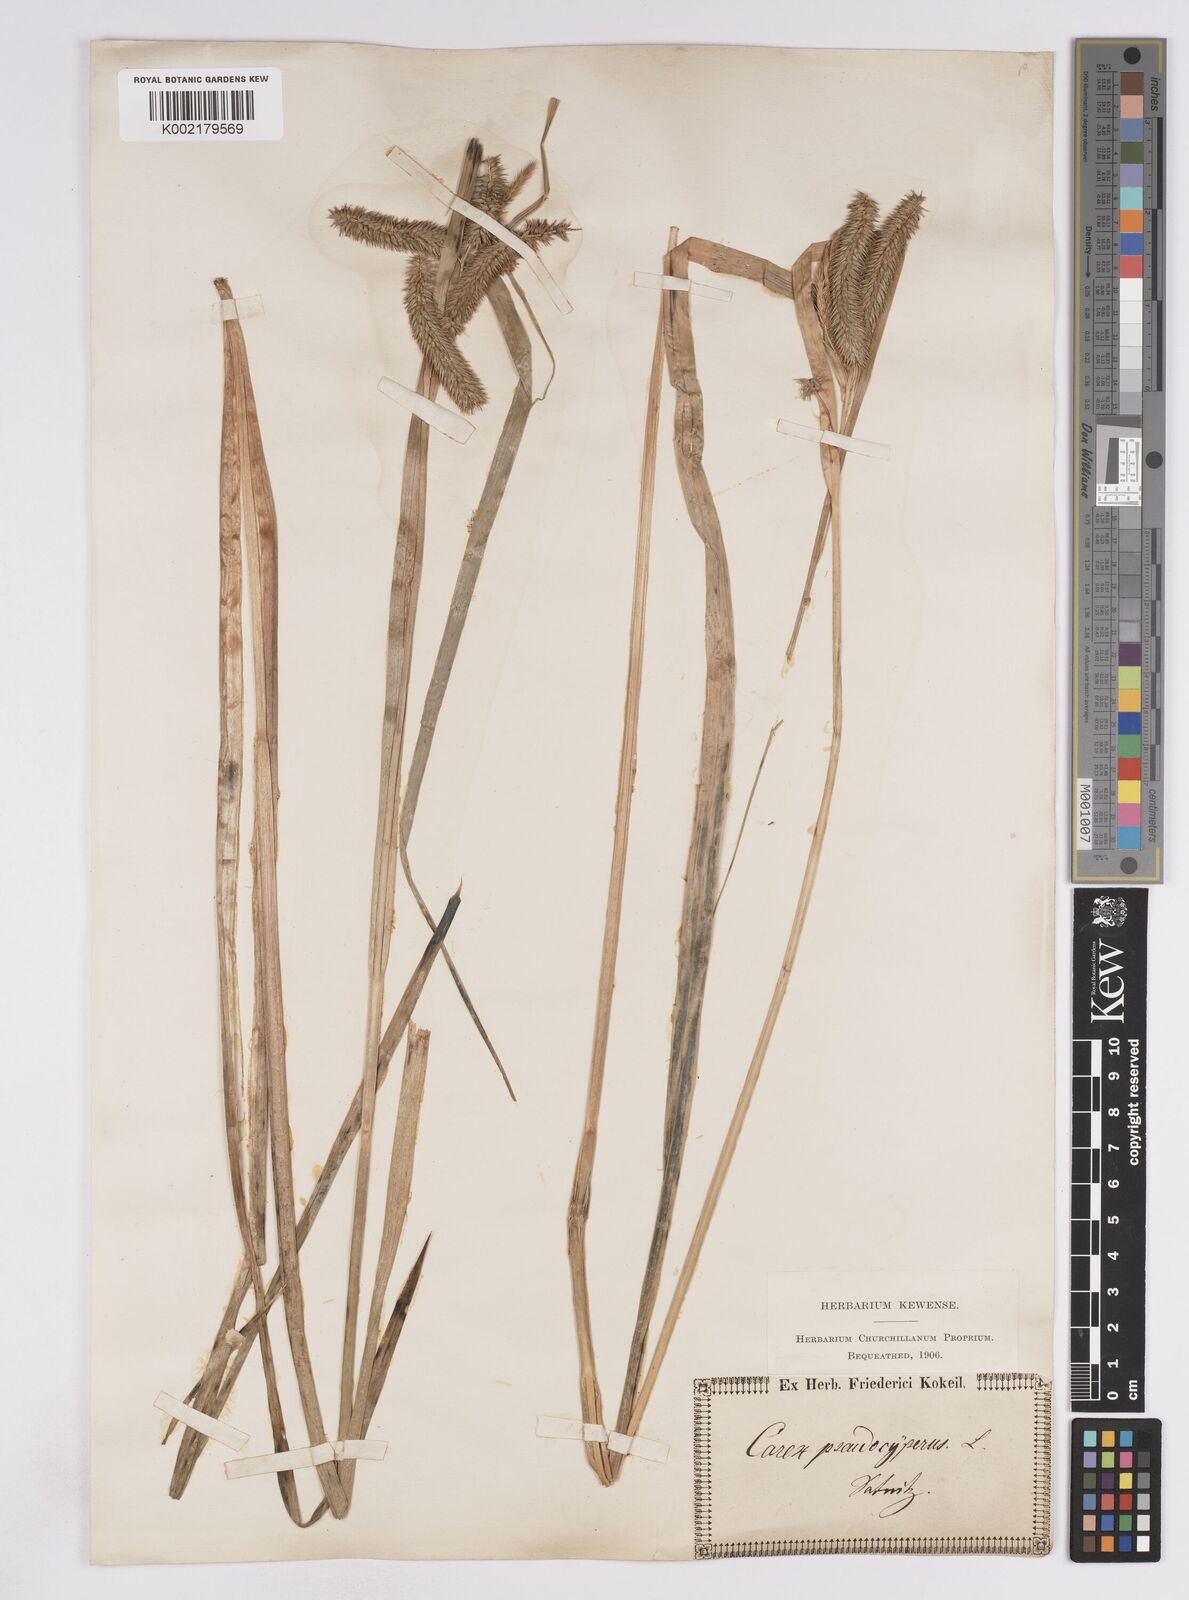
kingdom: Plantae
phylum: Tracheophyta
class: Liliopsida
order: Poales
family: Cyperaceae
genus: Carex
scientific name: Carex pseudocyperus
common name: Cyperus sedge
